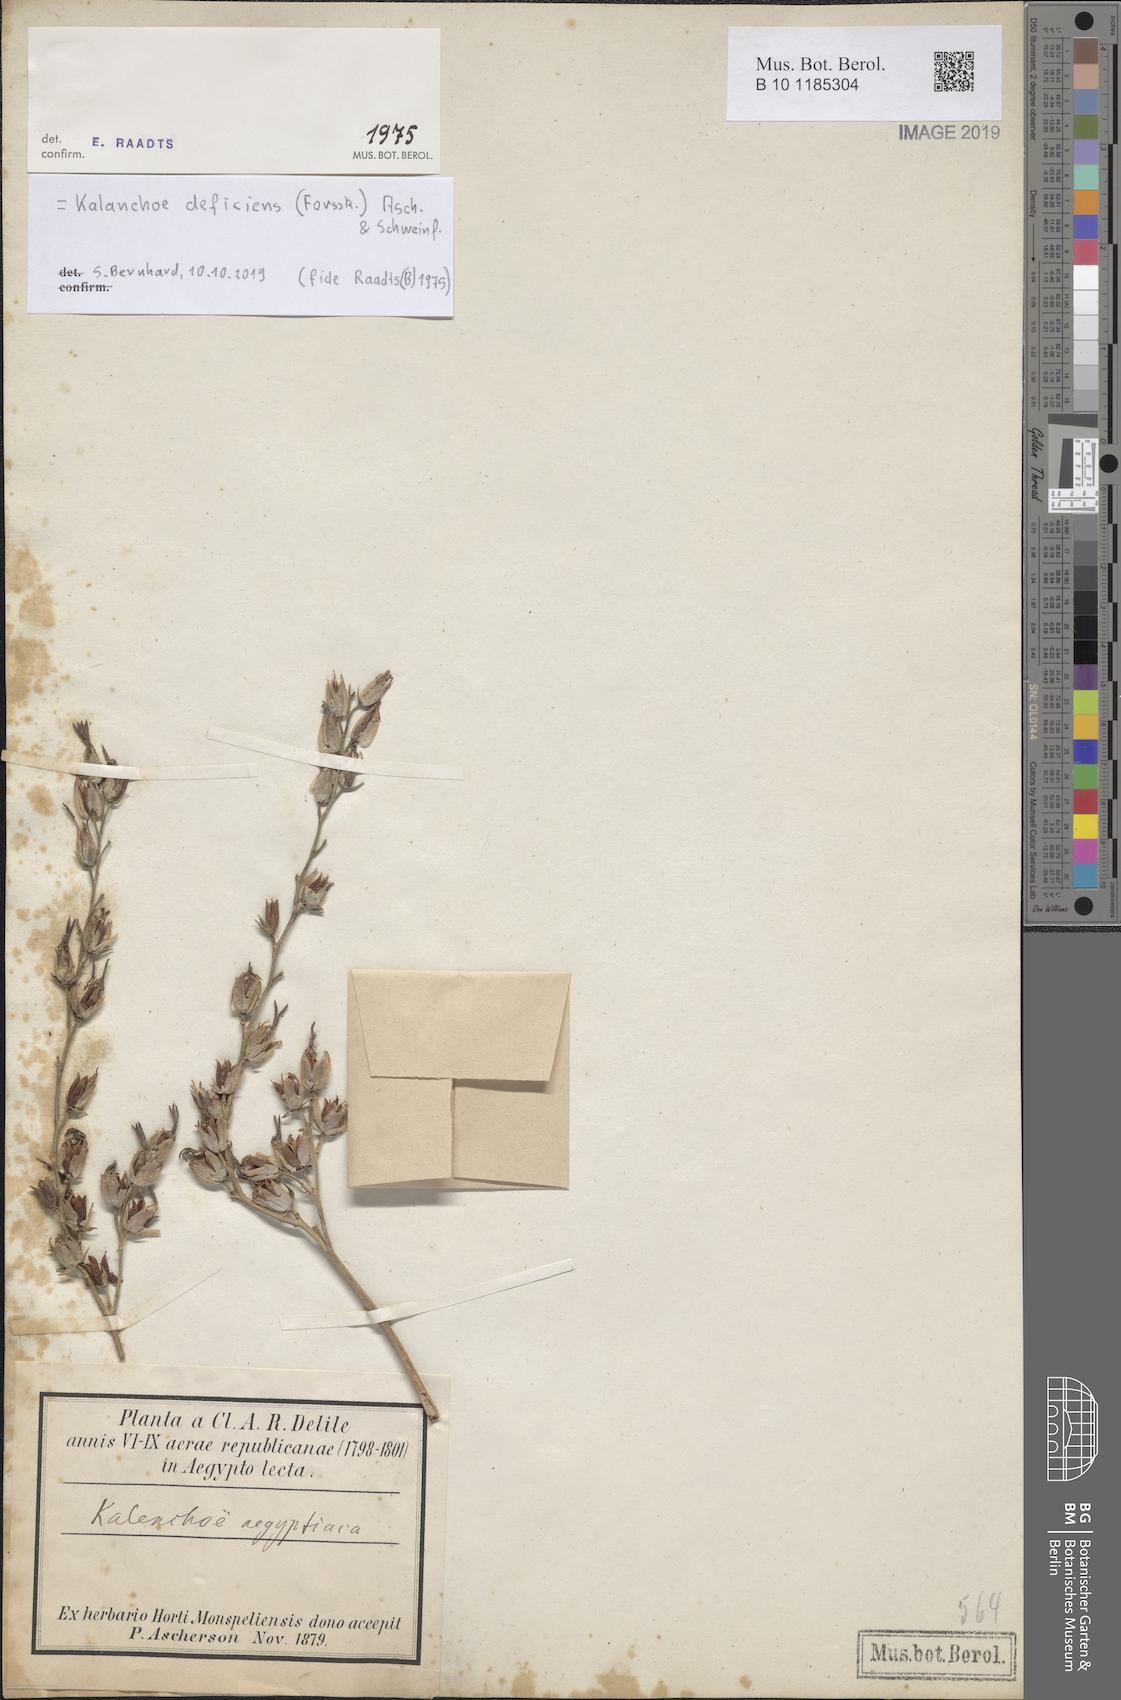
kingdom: Plantae
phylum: Tracheophyta
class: Magnoliopsida
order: Saxifragales
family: Crassulaceae
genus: Kalanchoe
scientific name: Kalanchoe deficiens
